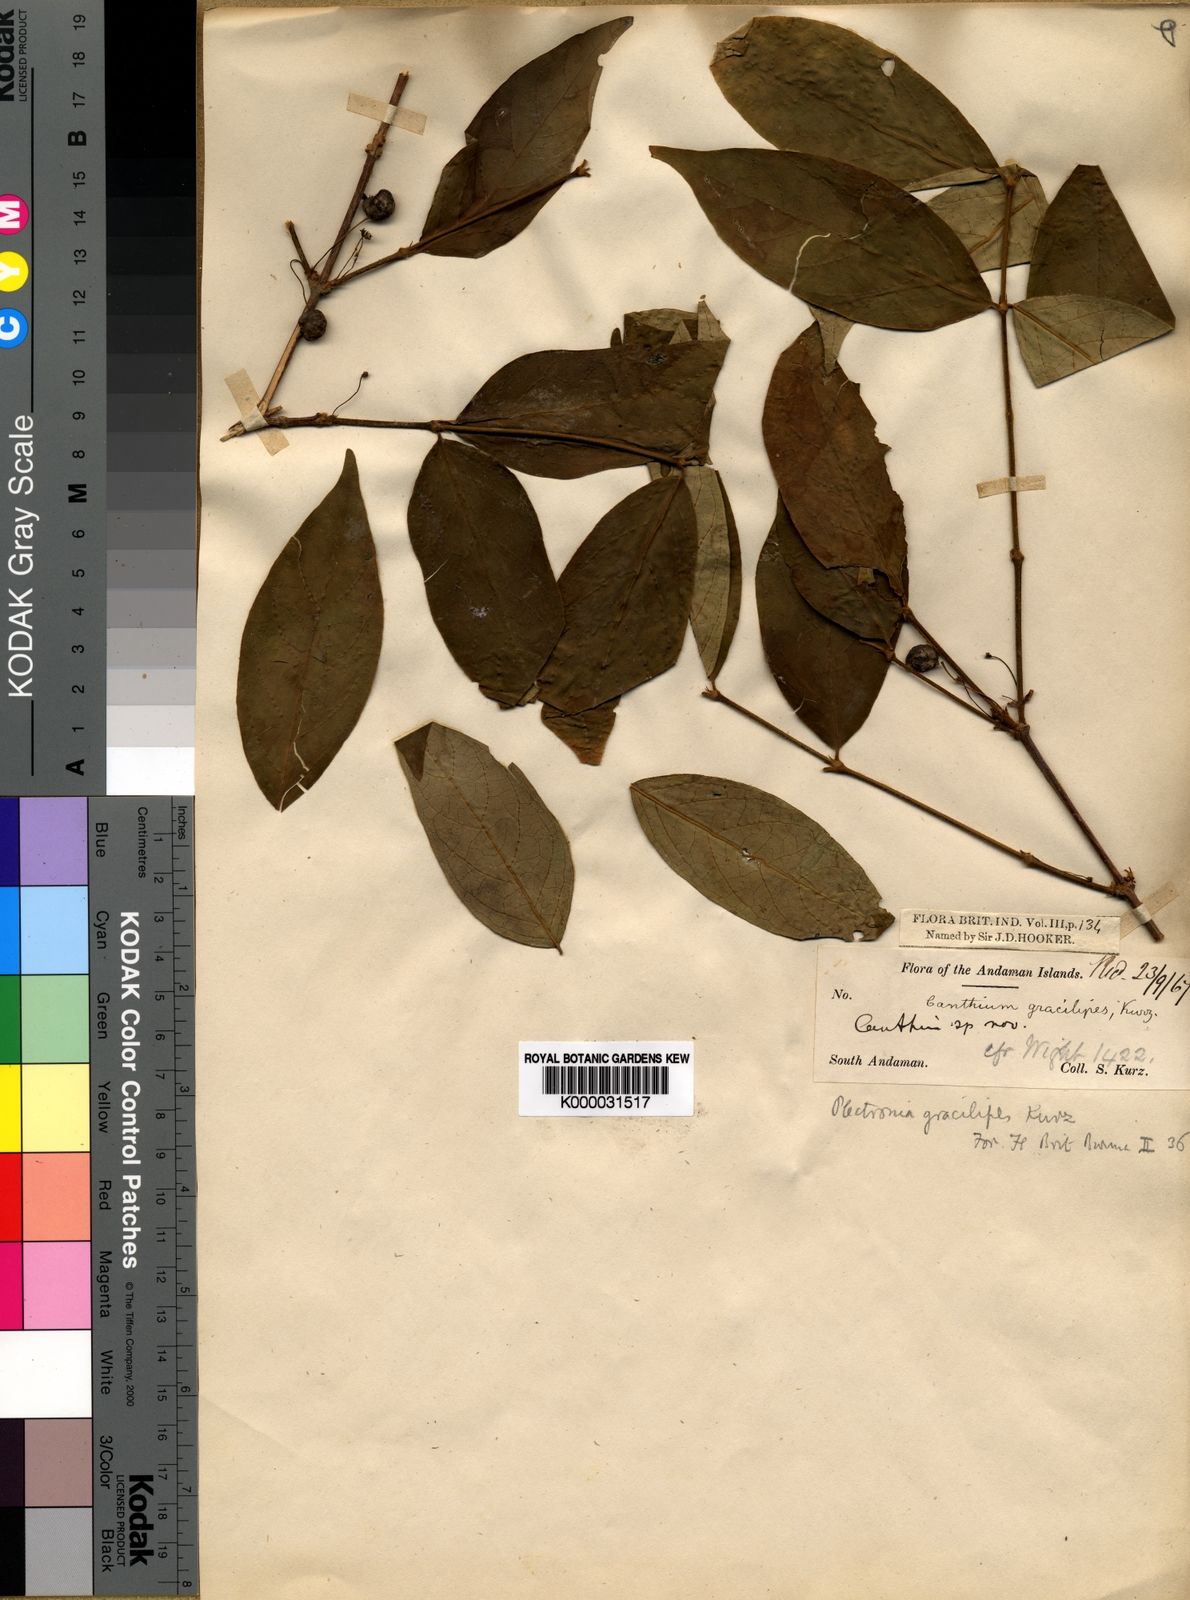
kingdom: Plantae
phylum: Tracheophyta
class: Magnoliopsida
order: Gentianales
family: Rubiaceae
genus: Canthium
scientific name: Canthium gracilipes
